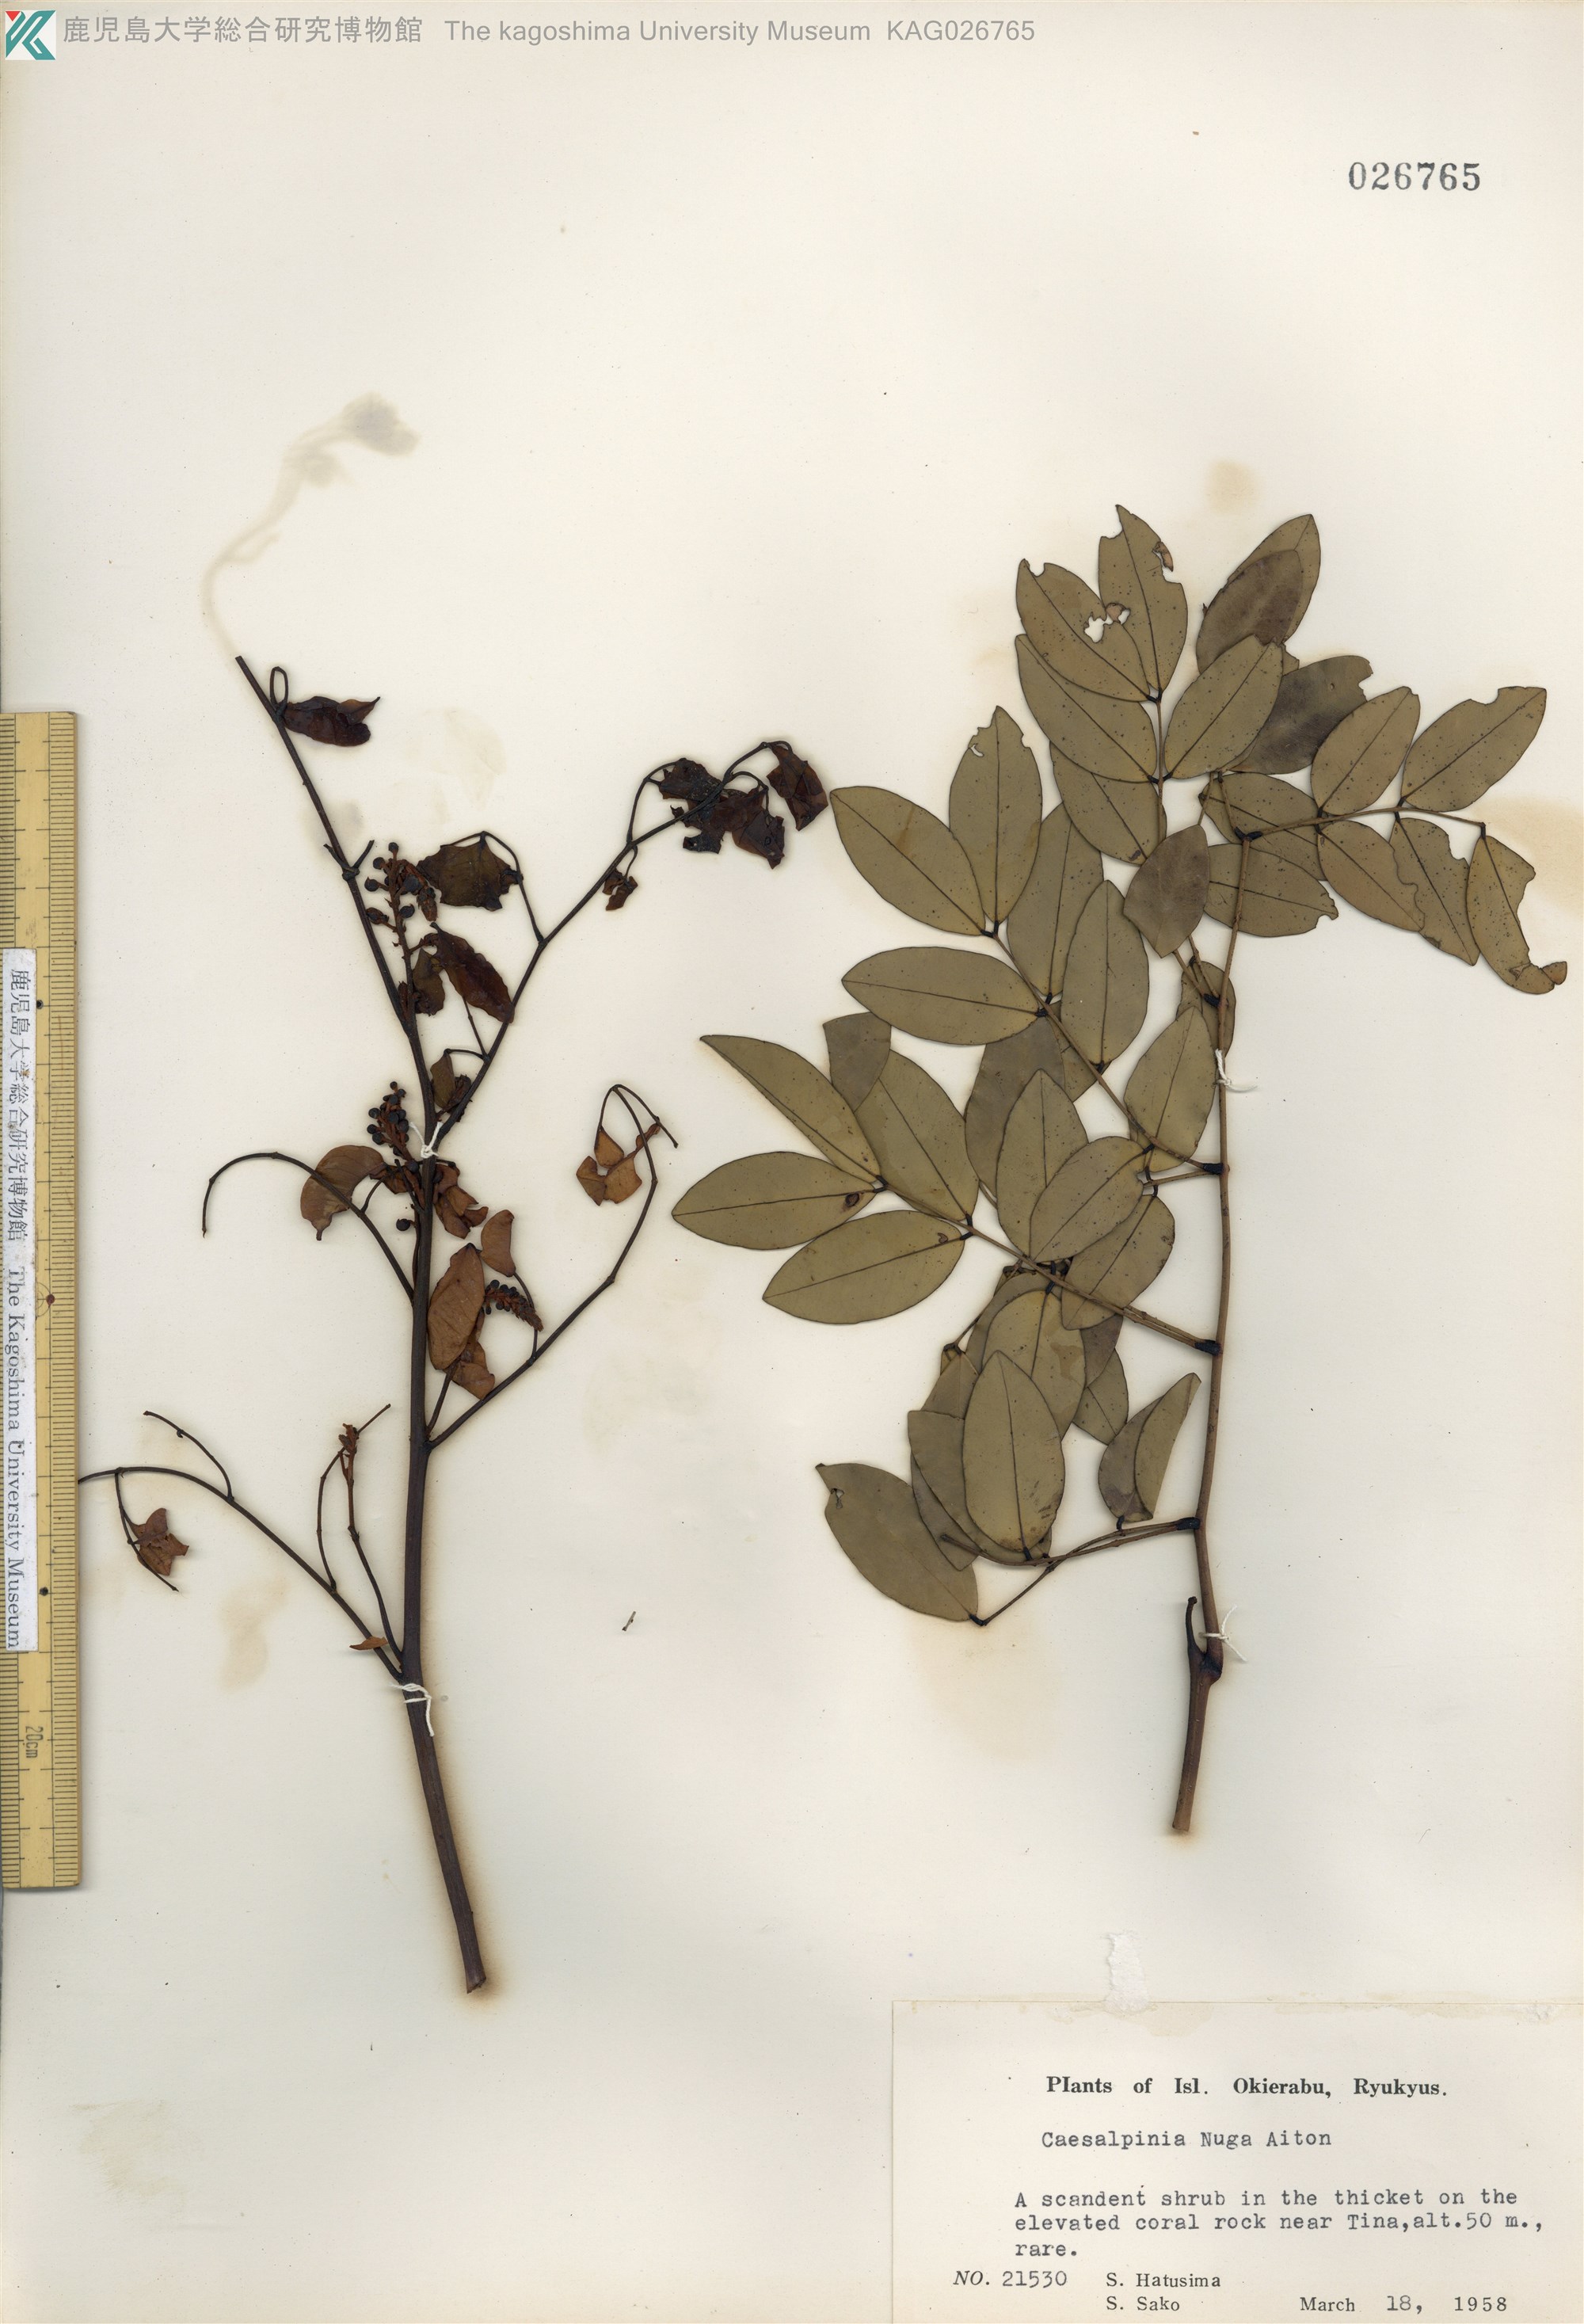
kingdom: Plantae
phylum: Tracheophyta
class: Magnoliopsida
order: Fabales
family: Fabaceae
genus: Caesalpinia
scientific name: Caesalpinia Ticanto crista
